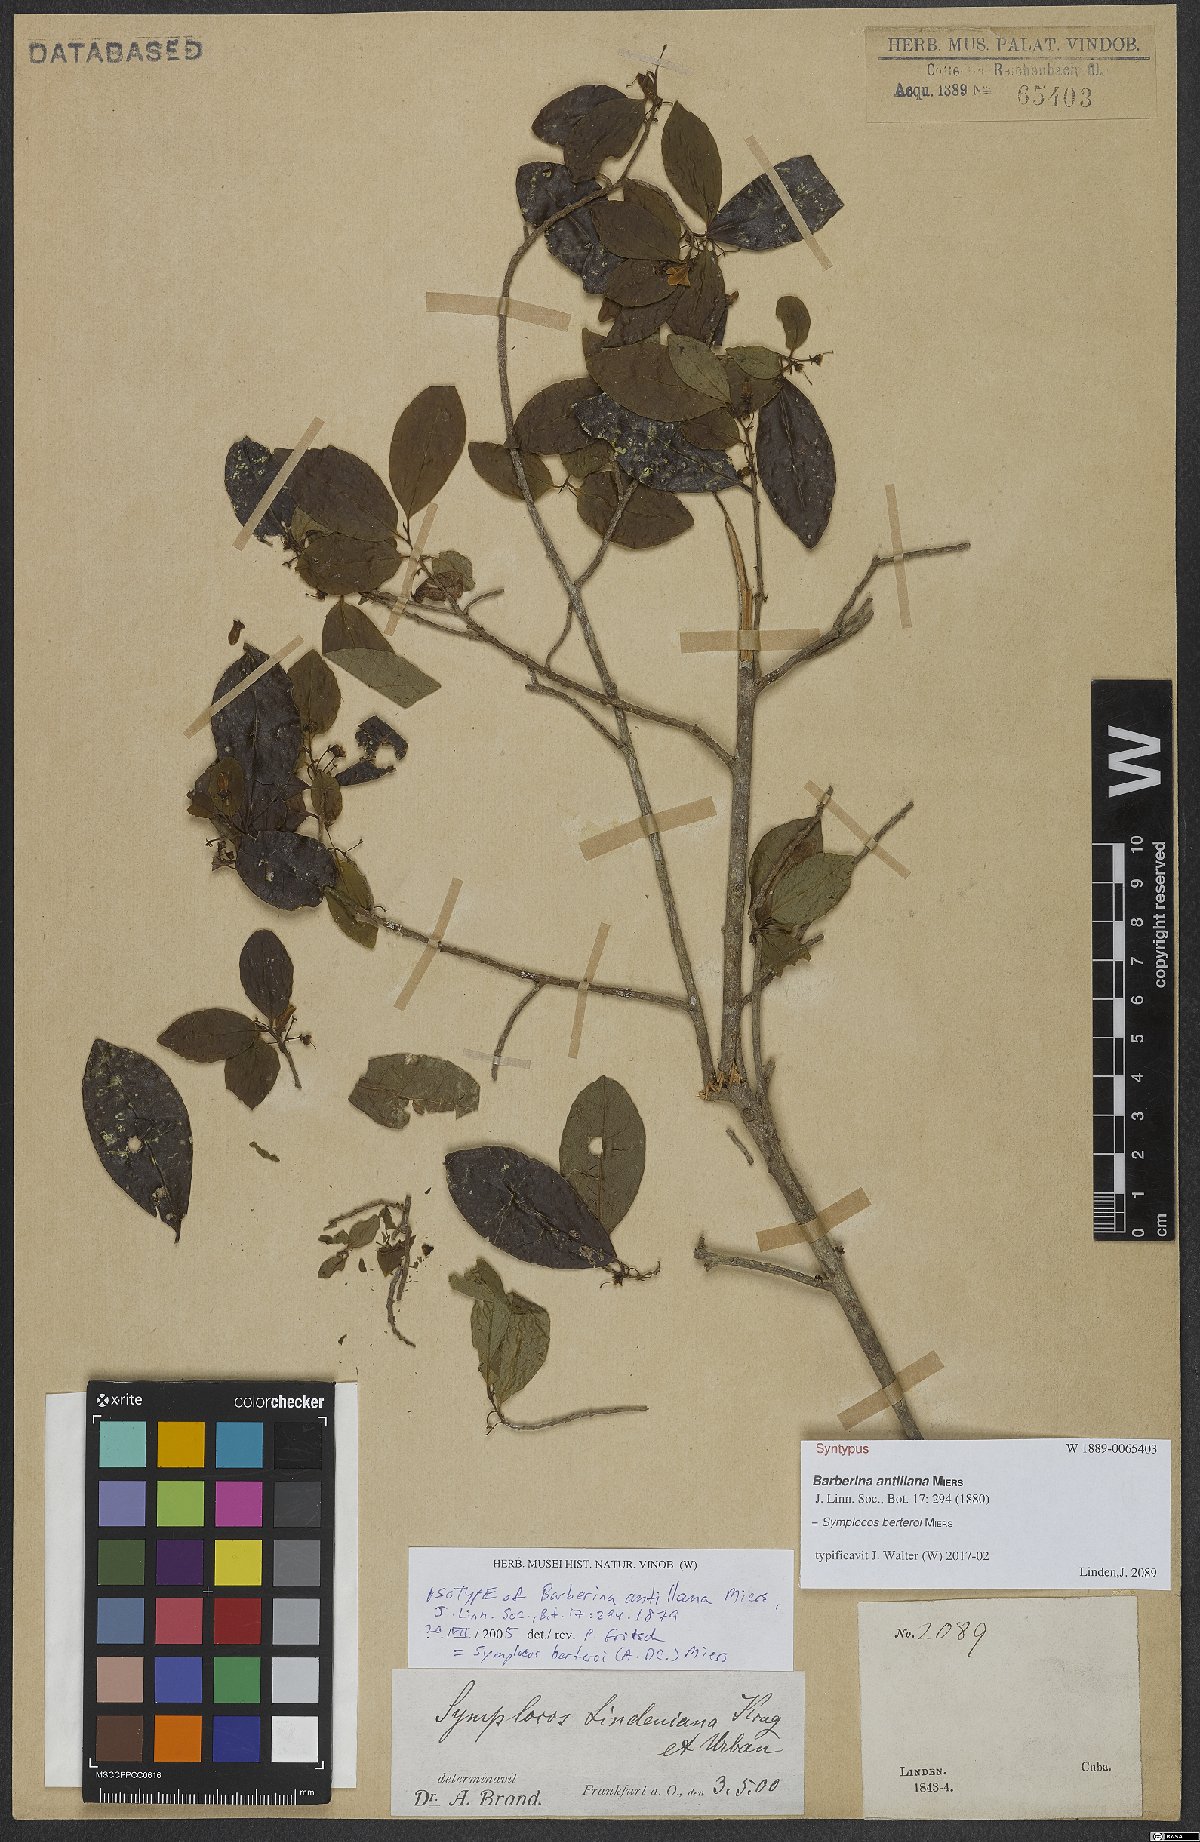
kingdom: Plantae
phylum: Tracheophyta
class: Magnoliopsida
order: Ericales
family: Symplocaceae
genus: Symplocos
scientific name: Symplocos cubensis
